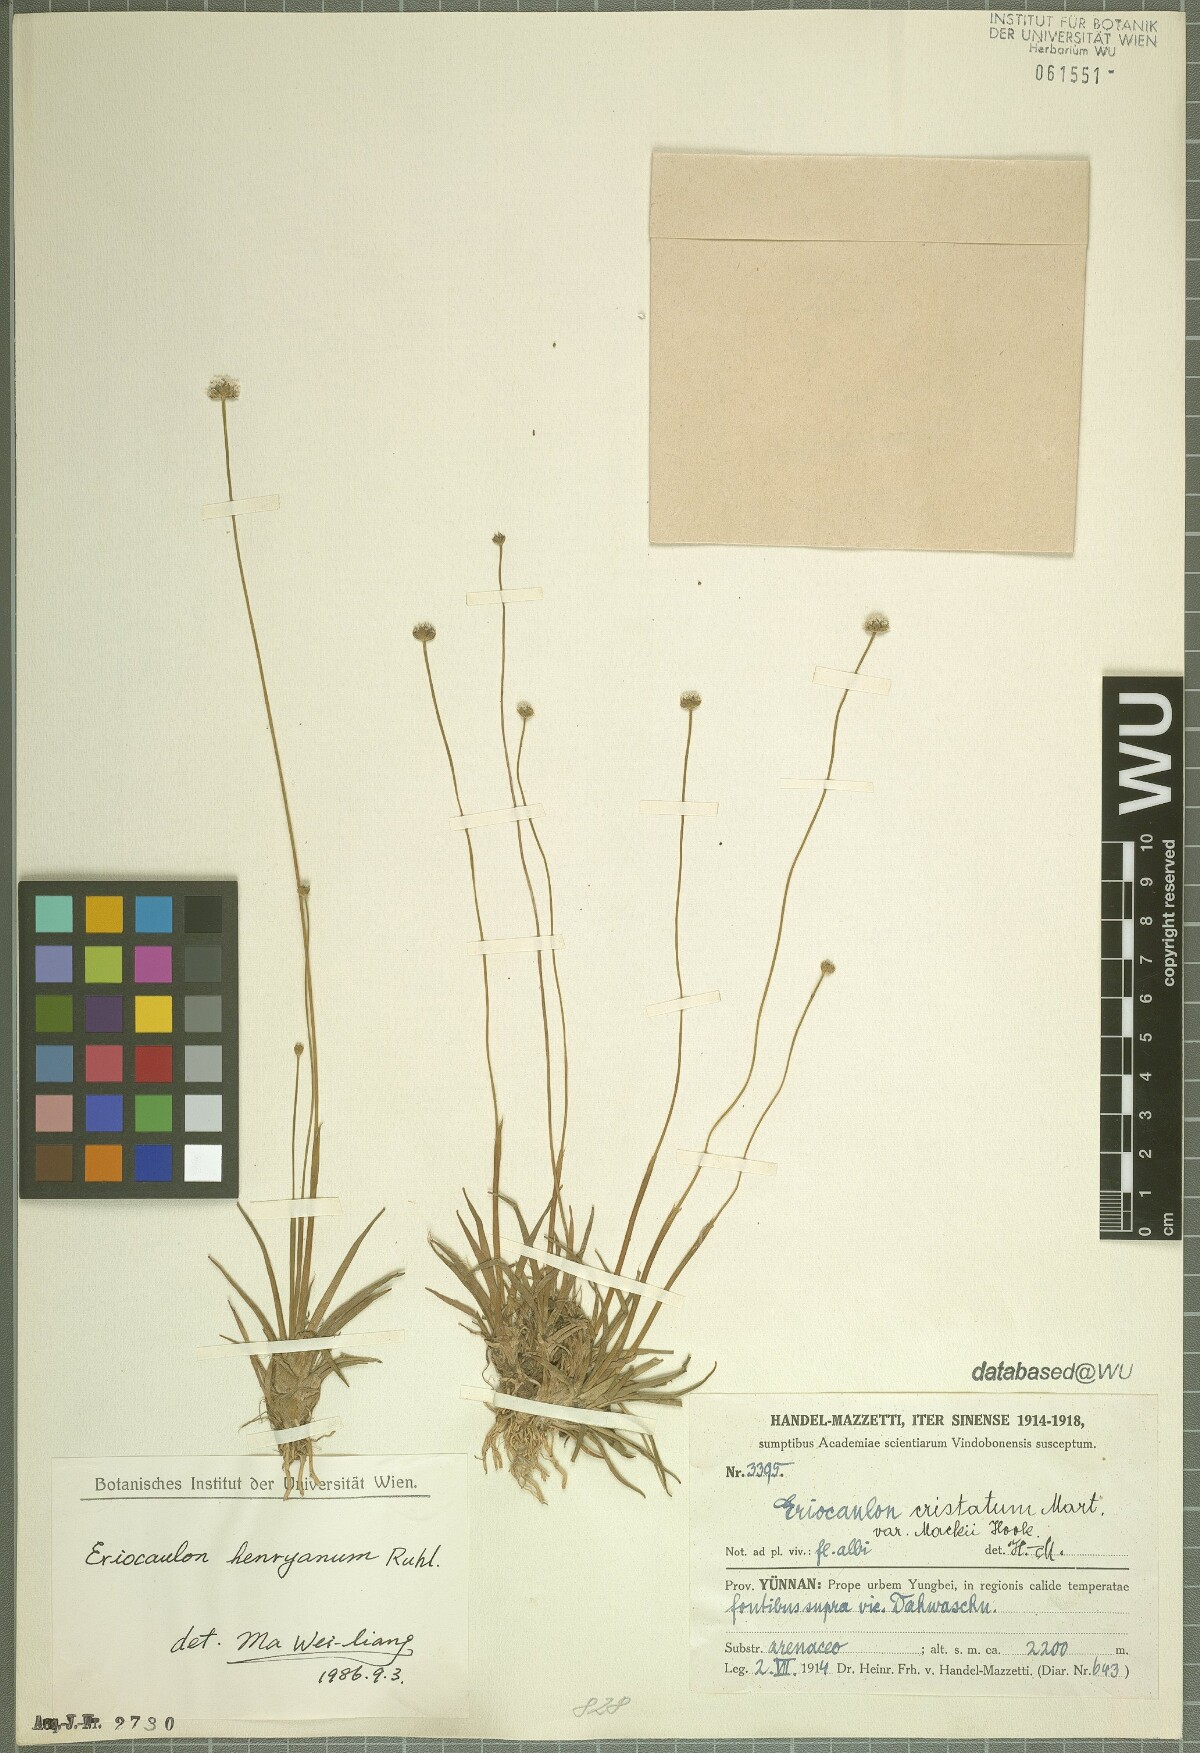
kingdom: Plantae
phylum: Tracheophyta
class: Liliopsida
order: Poales
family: Eriocaulaceae
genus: Eriocaulon
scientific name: Eriocaulon henryanum
